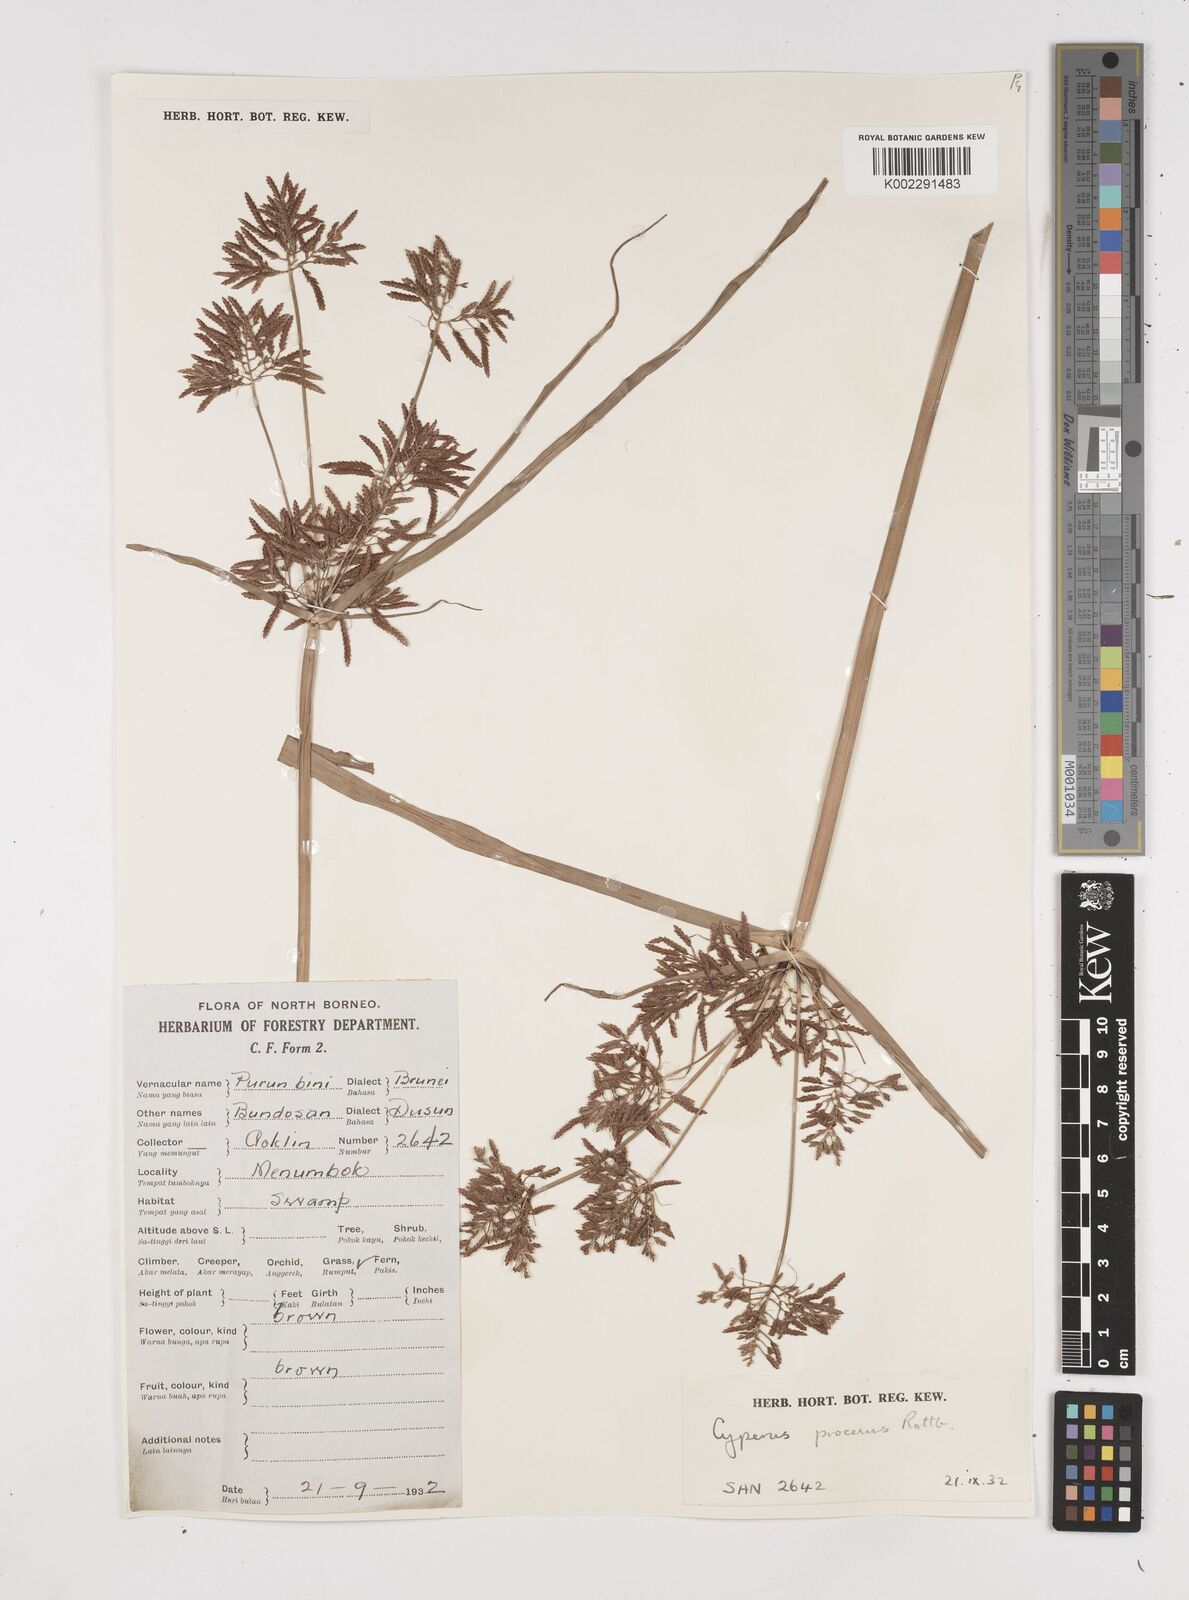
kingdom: Plantae
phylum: Tracheophyta
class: Liliopsida
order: Poales
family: Cyperaceae
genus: Cyperus
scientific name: Cyperus procerus
